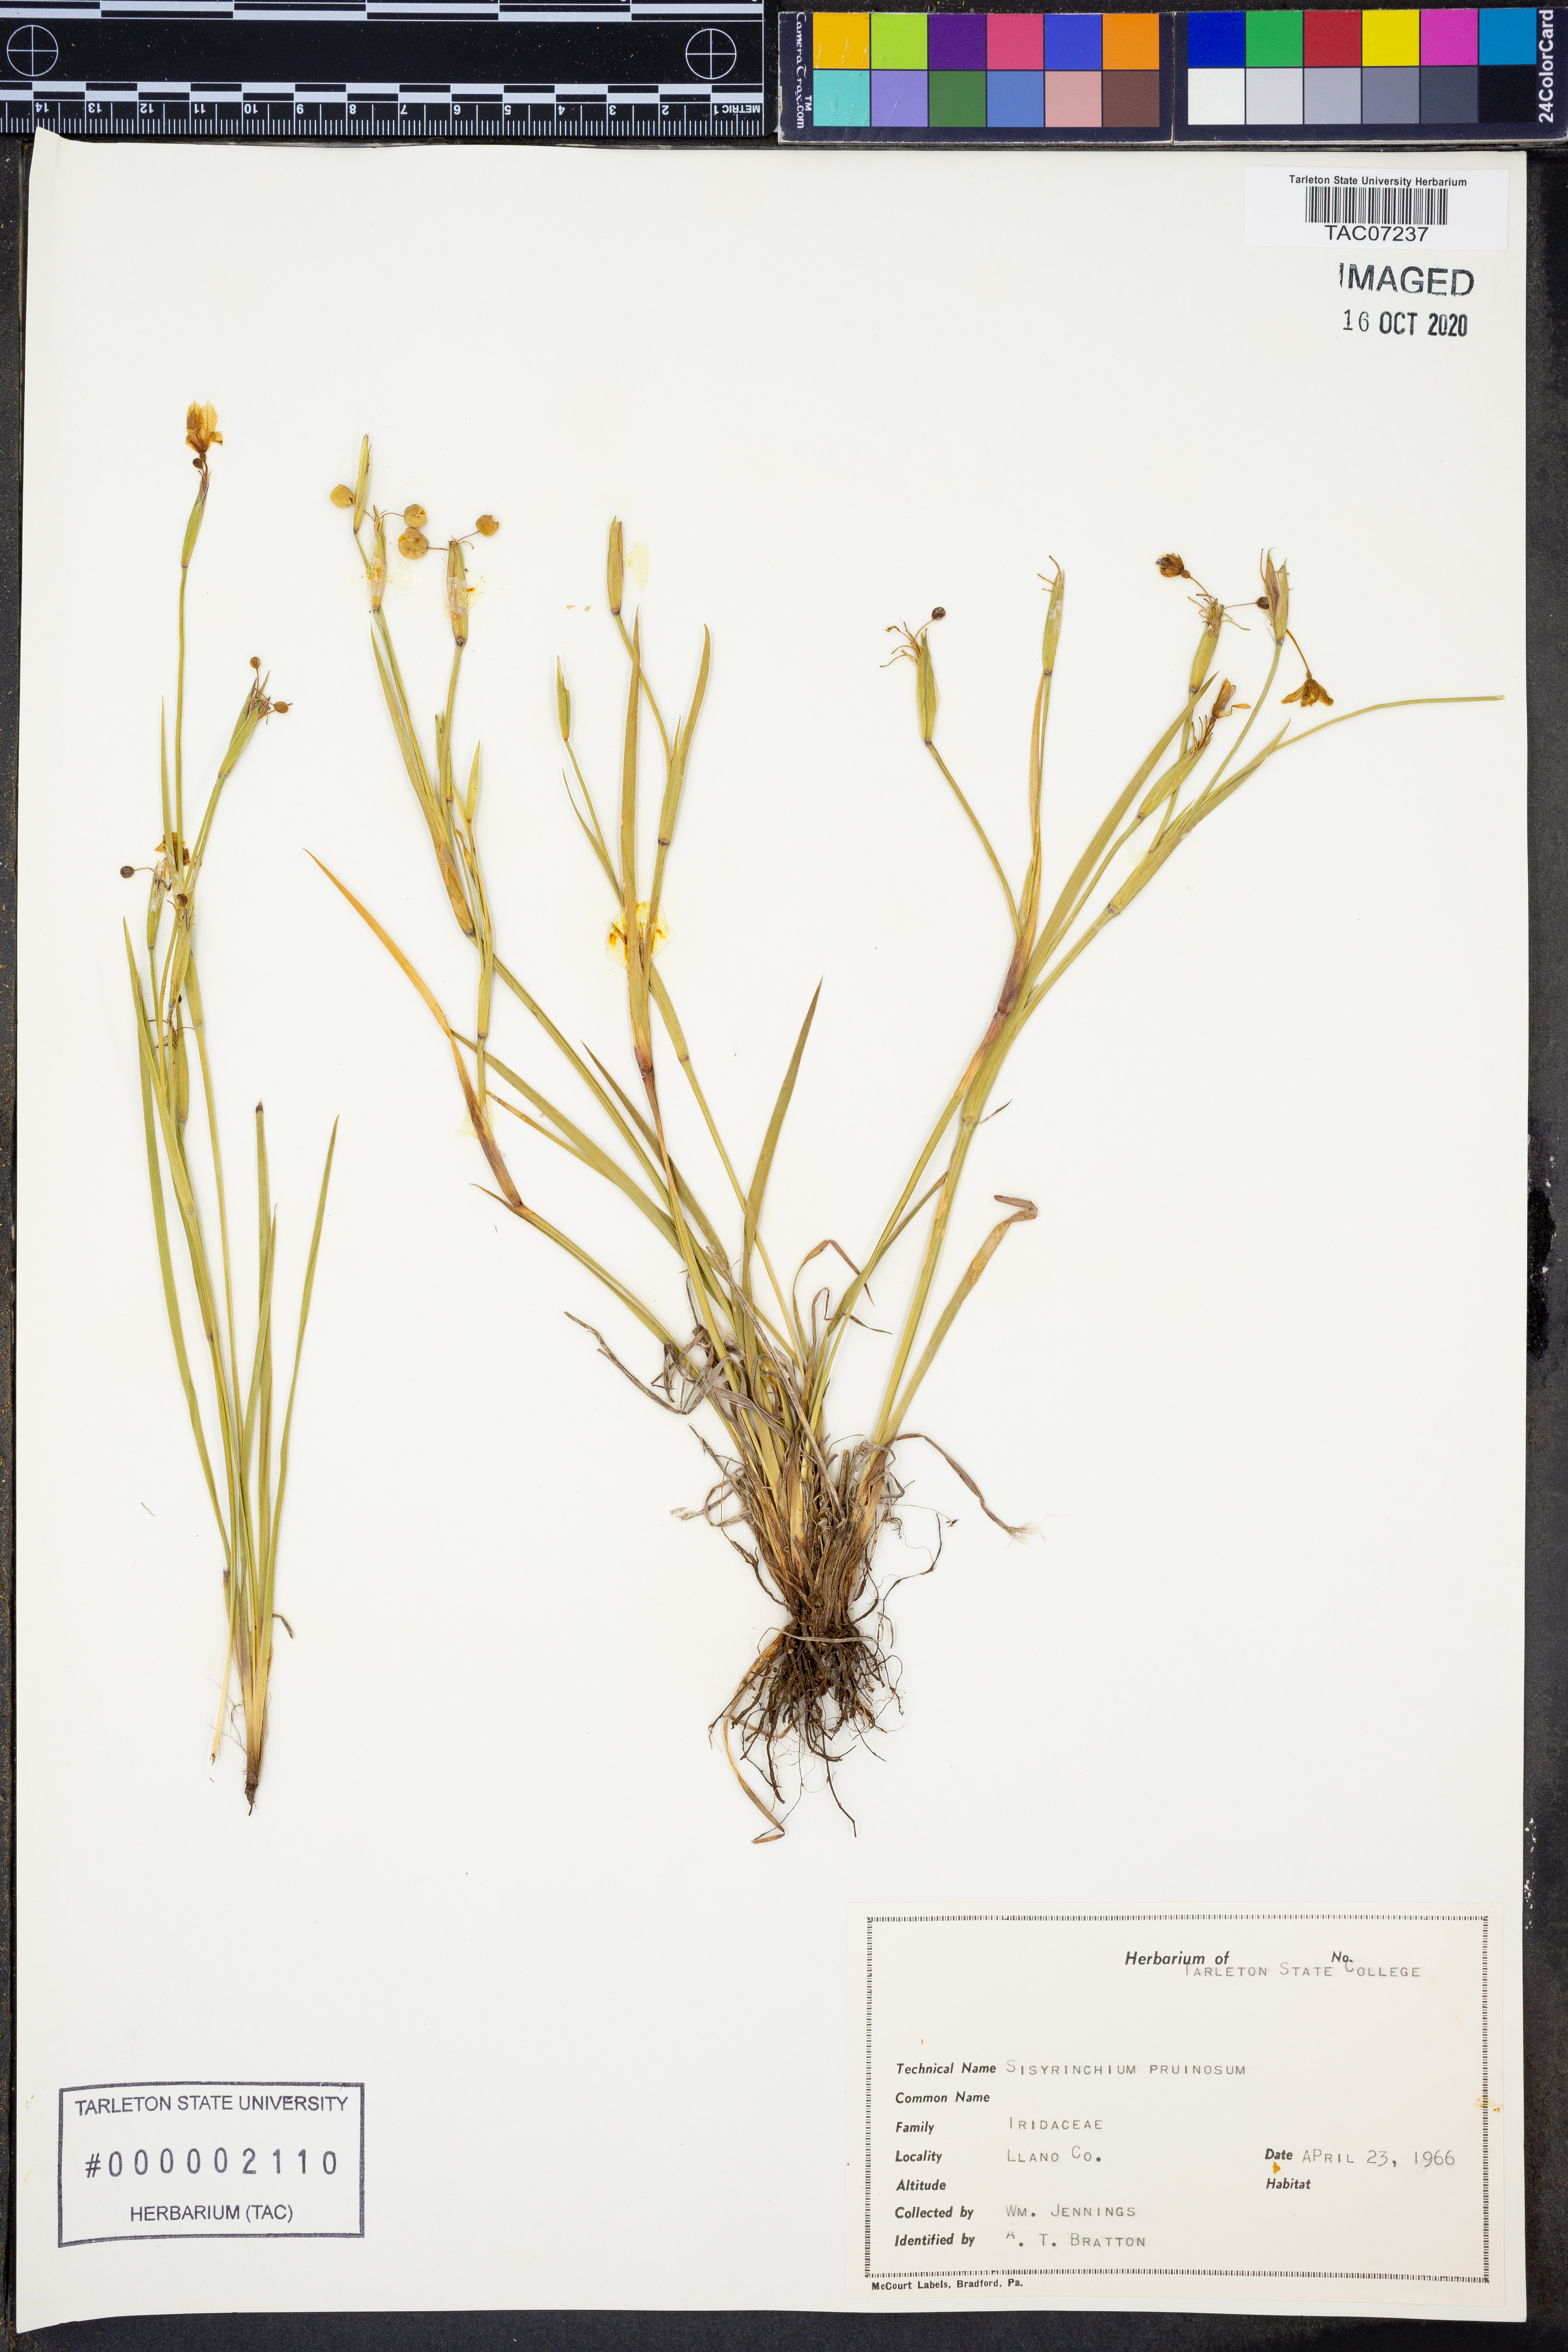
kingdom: Plantae
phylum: Tracheophyta
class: Liliopsida
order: Asparagales
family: Iridaceae
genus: Sisyrinchium
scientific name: Sisyrinchium pruinosum
